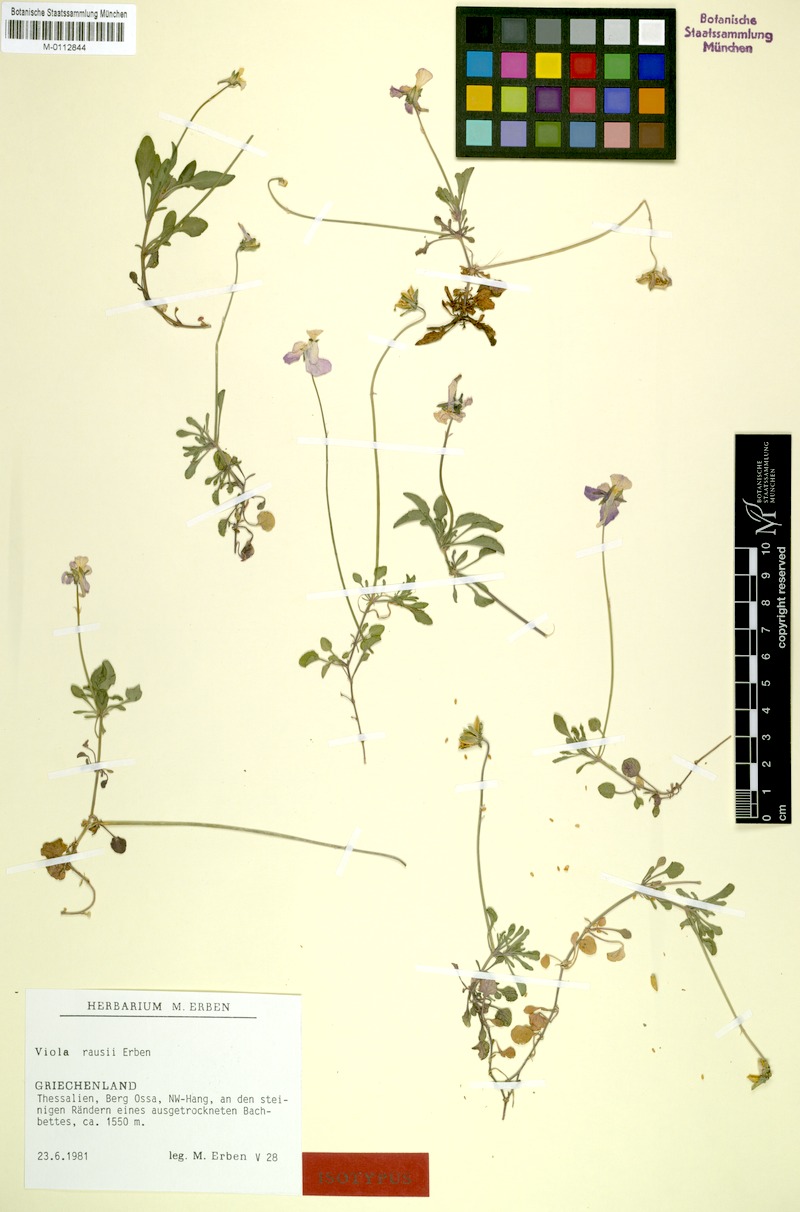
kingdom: Plantae
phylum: Tracheophyta
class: Magnoliopsida
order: Malpighiales
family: Violaceae
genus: Viola
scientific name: Viola rausii
